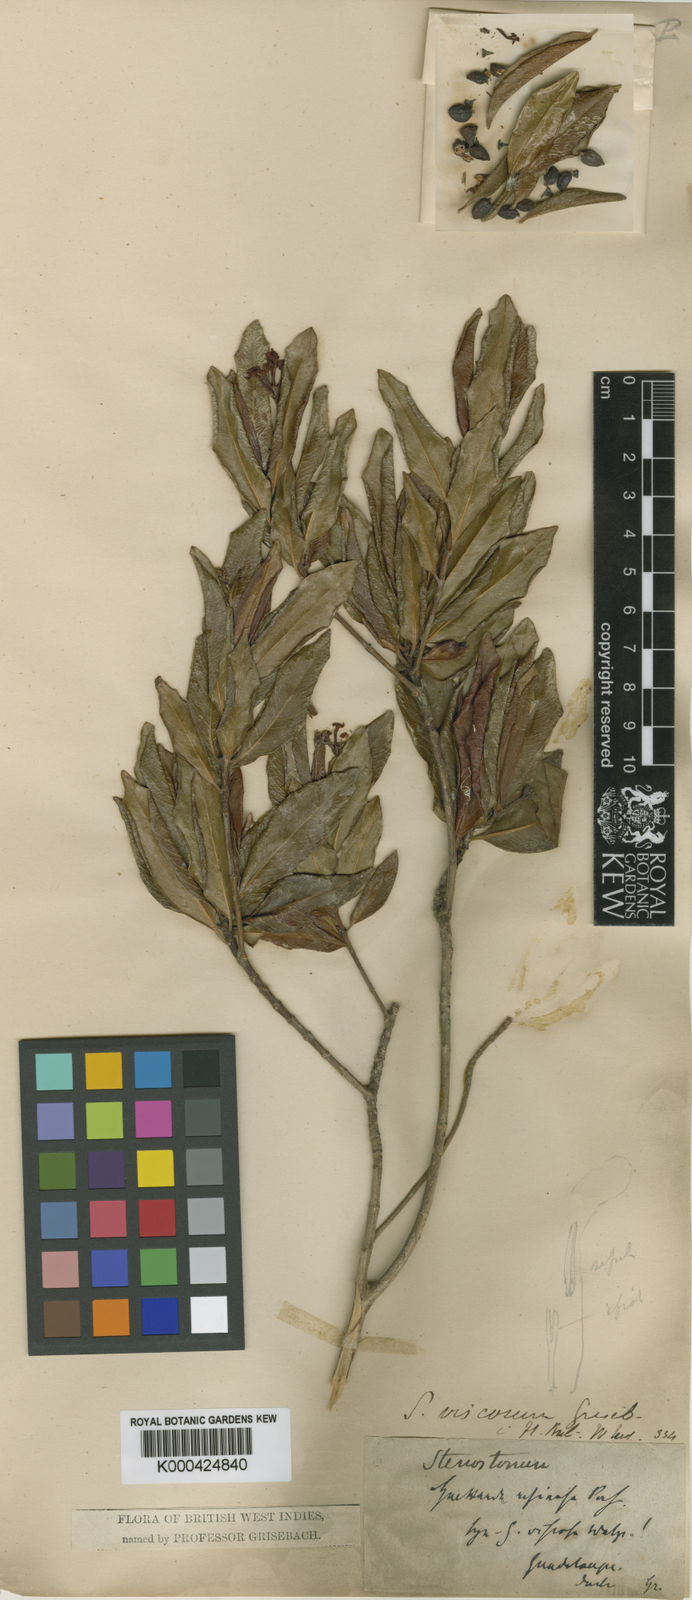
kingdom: Plantae
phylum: Tracheophyta
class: Magnoliopsida
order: Gentianales
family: Rubiaceae
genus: Stenostomum
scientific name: Stenostomum acutatum
